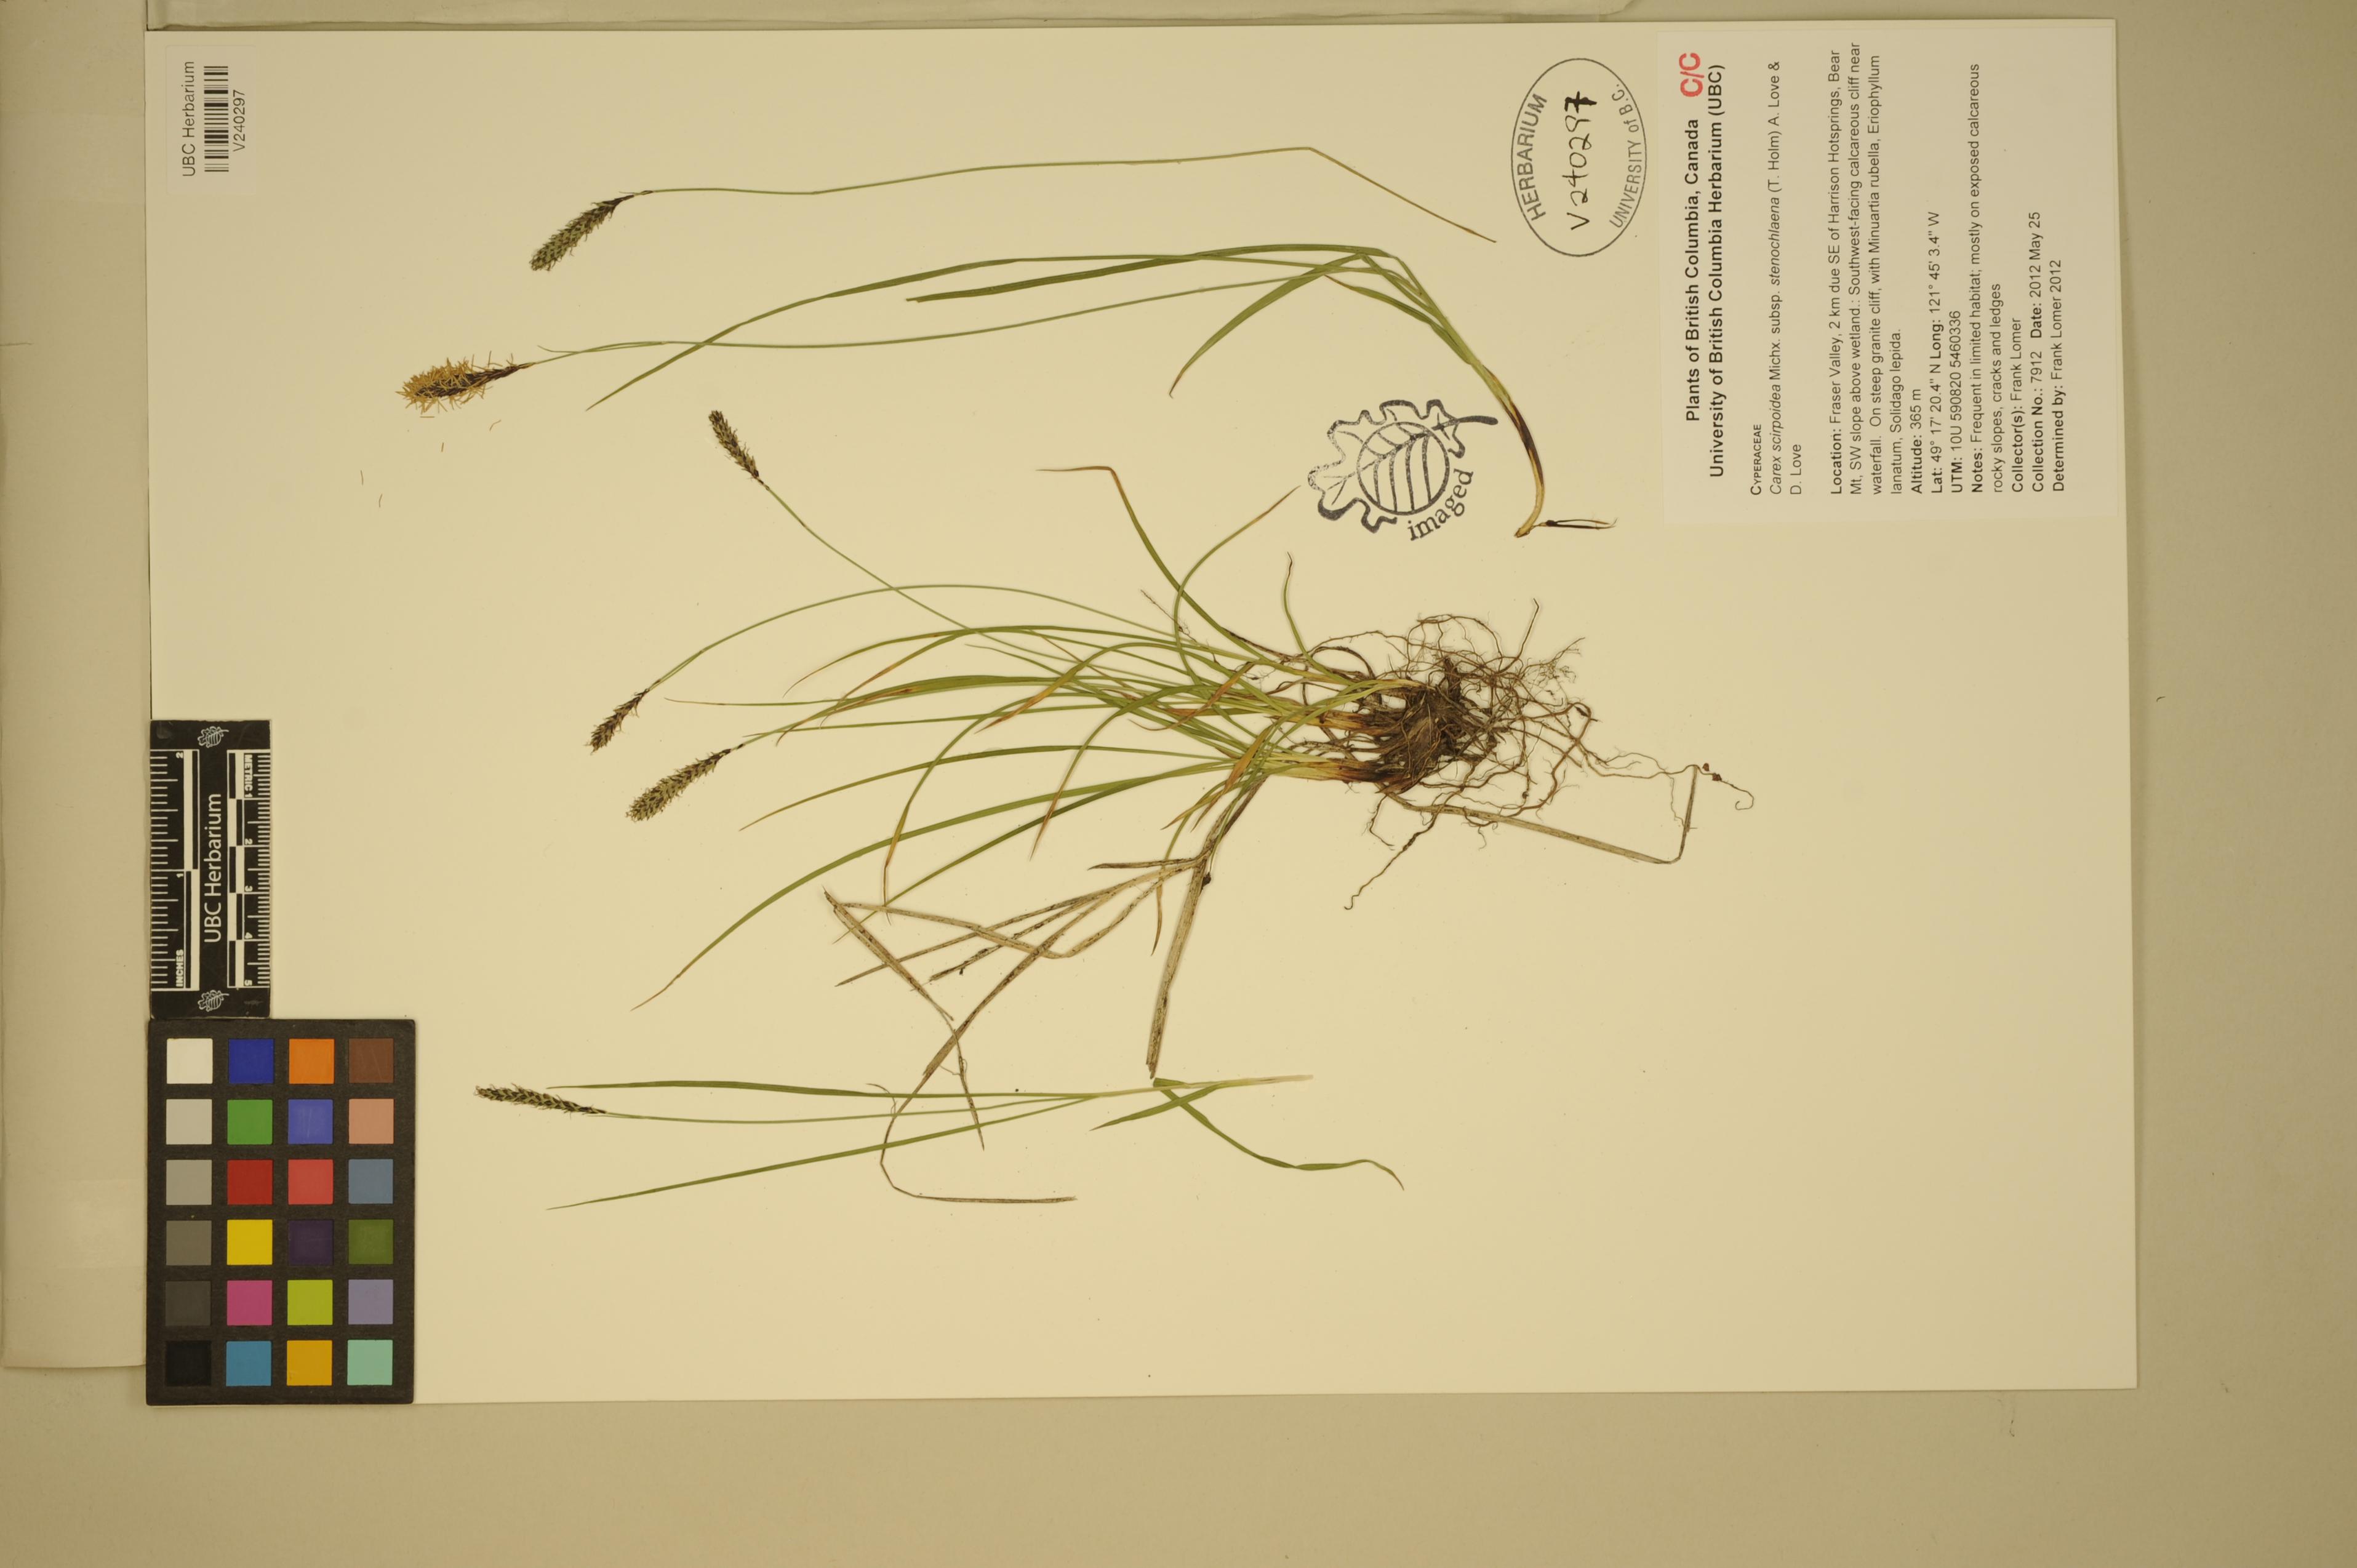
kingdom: Plantae
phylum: Tracheophyta
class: Liliopsida
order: Poales
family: Cyperaceae
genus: Carex
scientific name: Carex scirpoidea
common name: Canada single-spike sedge
